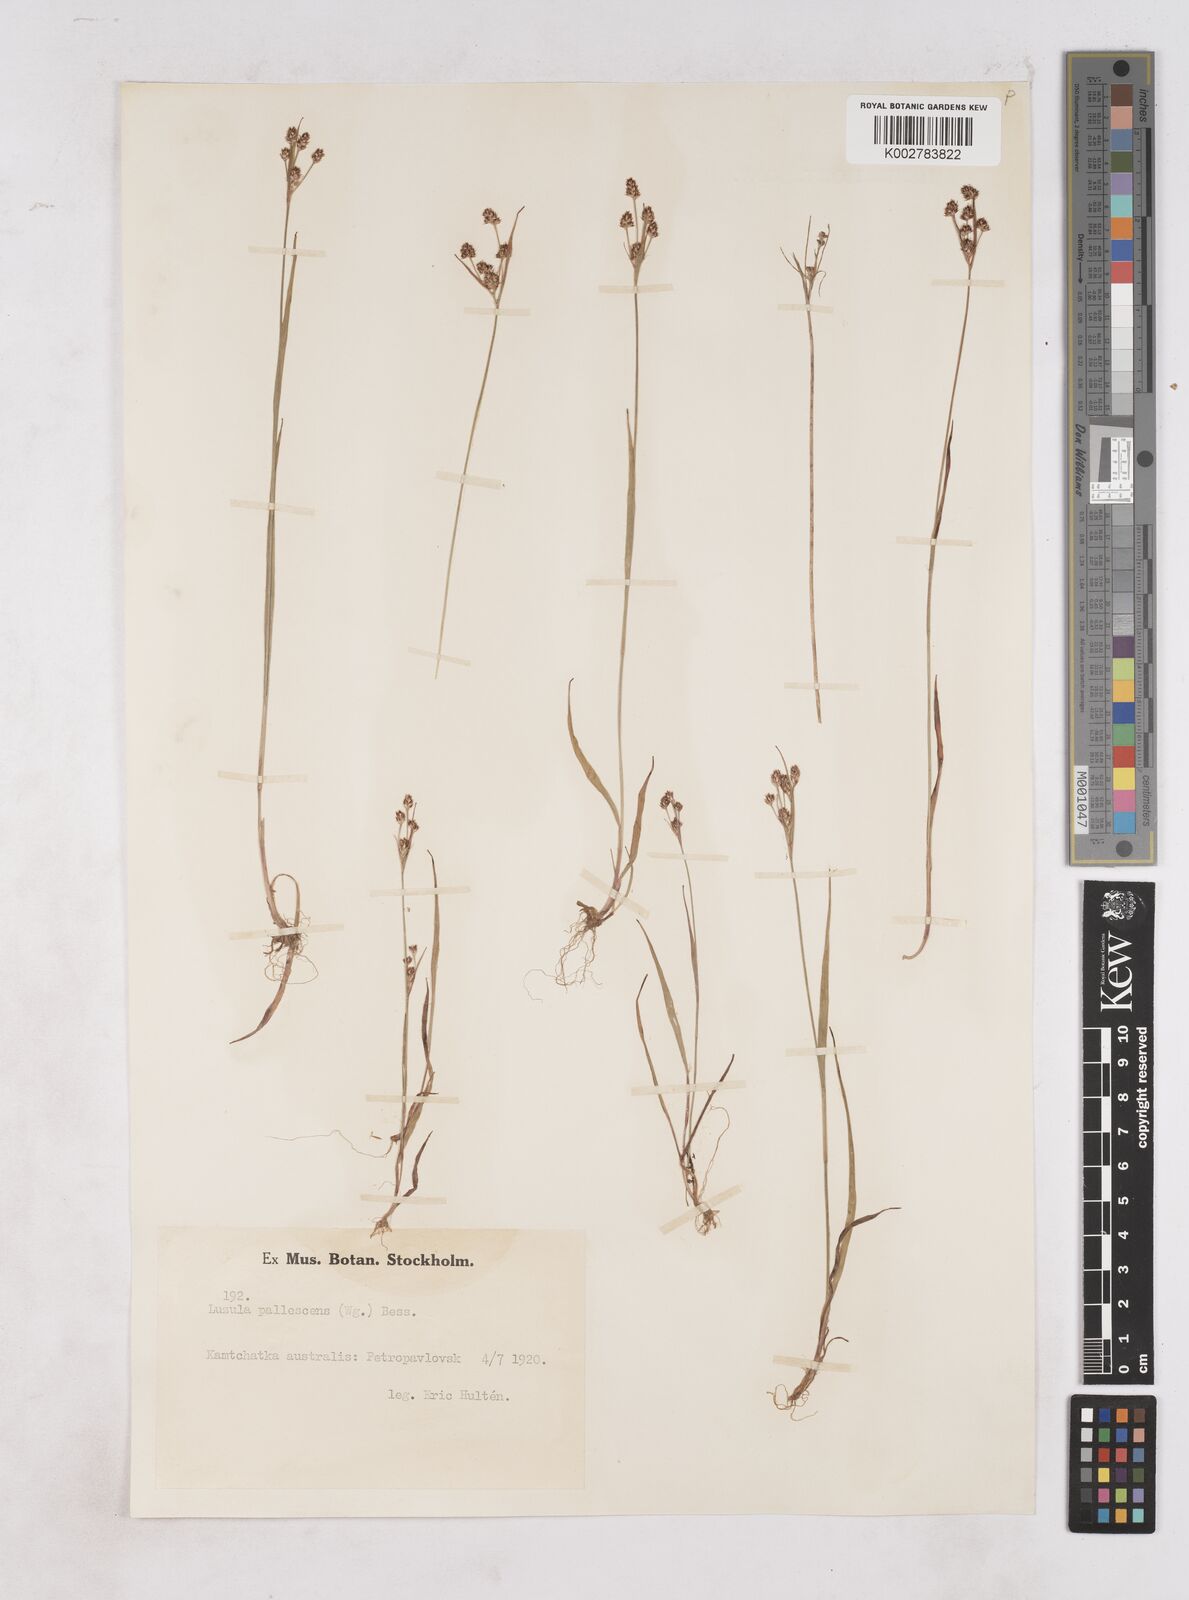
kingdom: Plantae
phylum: Tracheophyta
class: Liliopsida
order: Poales
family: Juncaceae
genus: Luzula
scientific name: Luzula pallescens
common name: Fen wood-rush
